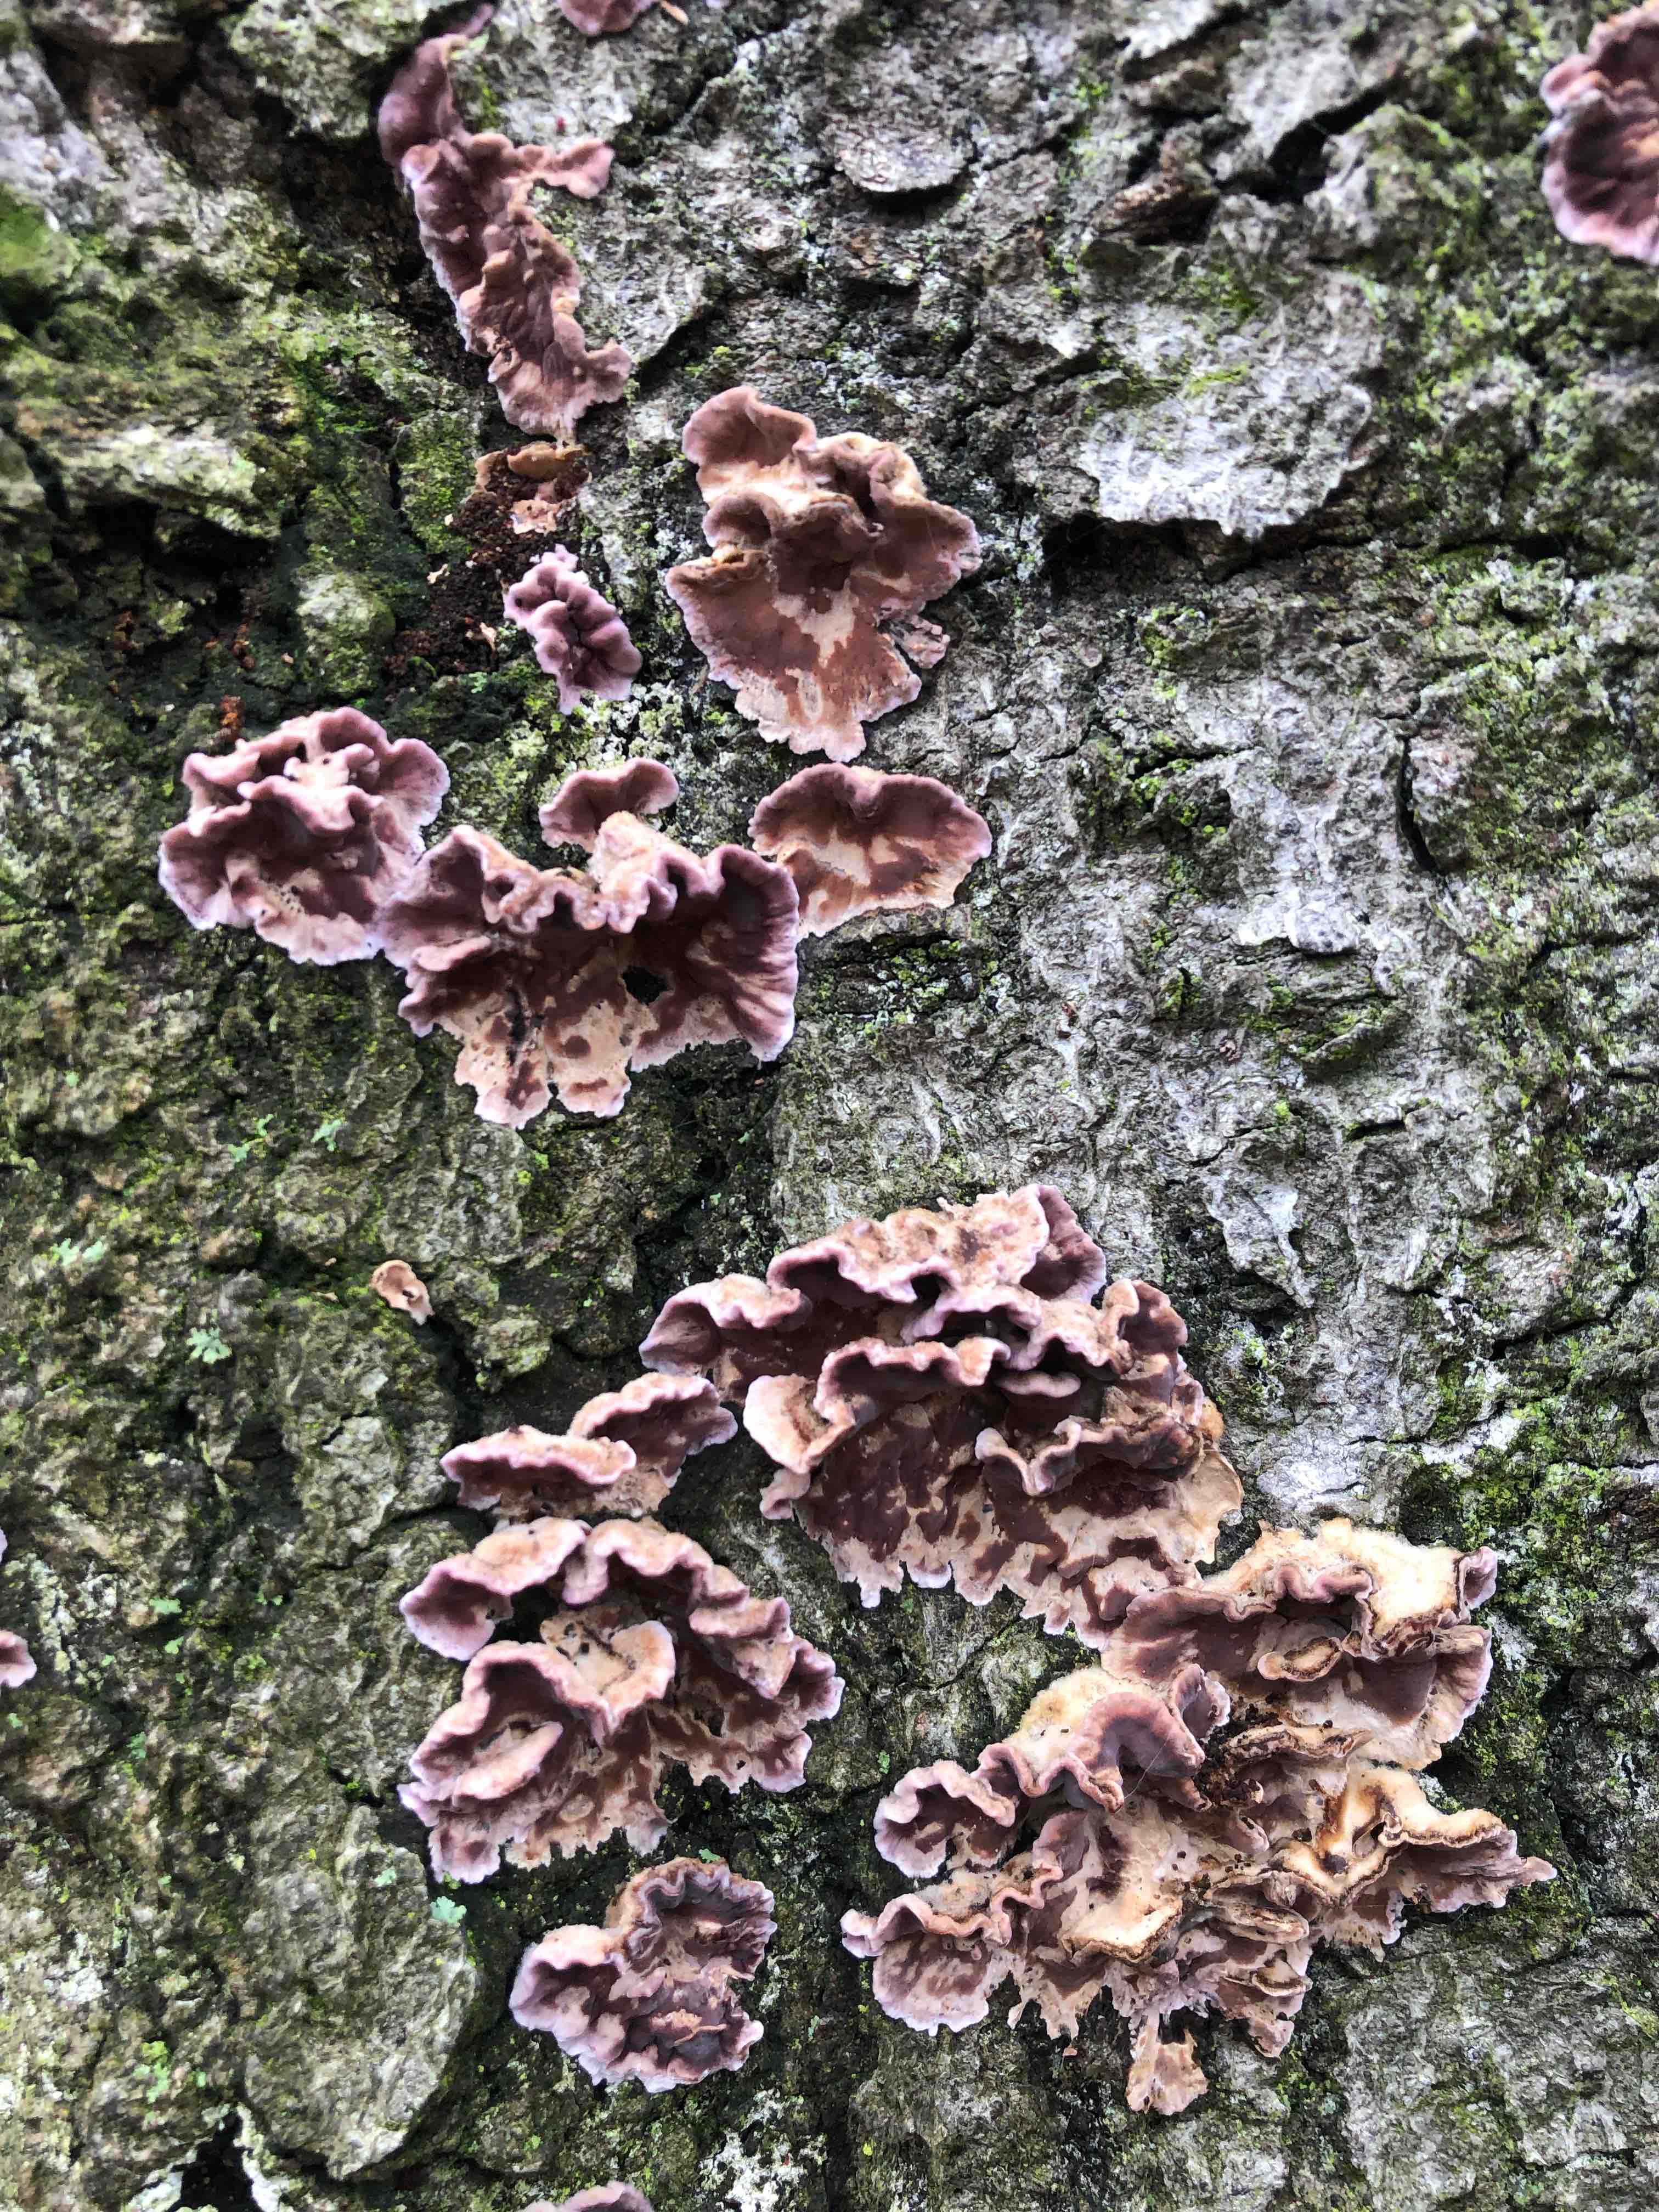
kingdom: Fungi
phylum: Basidiomycota
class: Agaricomycetes
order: Agaricales
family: Cyphellaceae
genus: Chondrostereum
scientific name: Chondrostereum purpureum
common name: purpurlædersvamp
